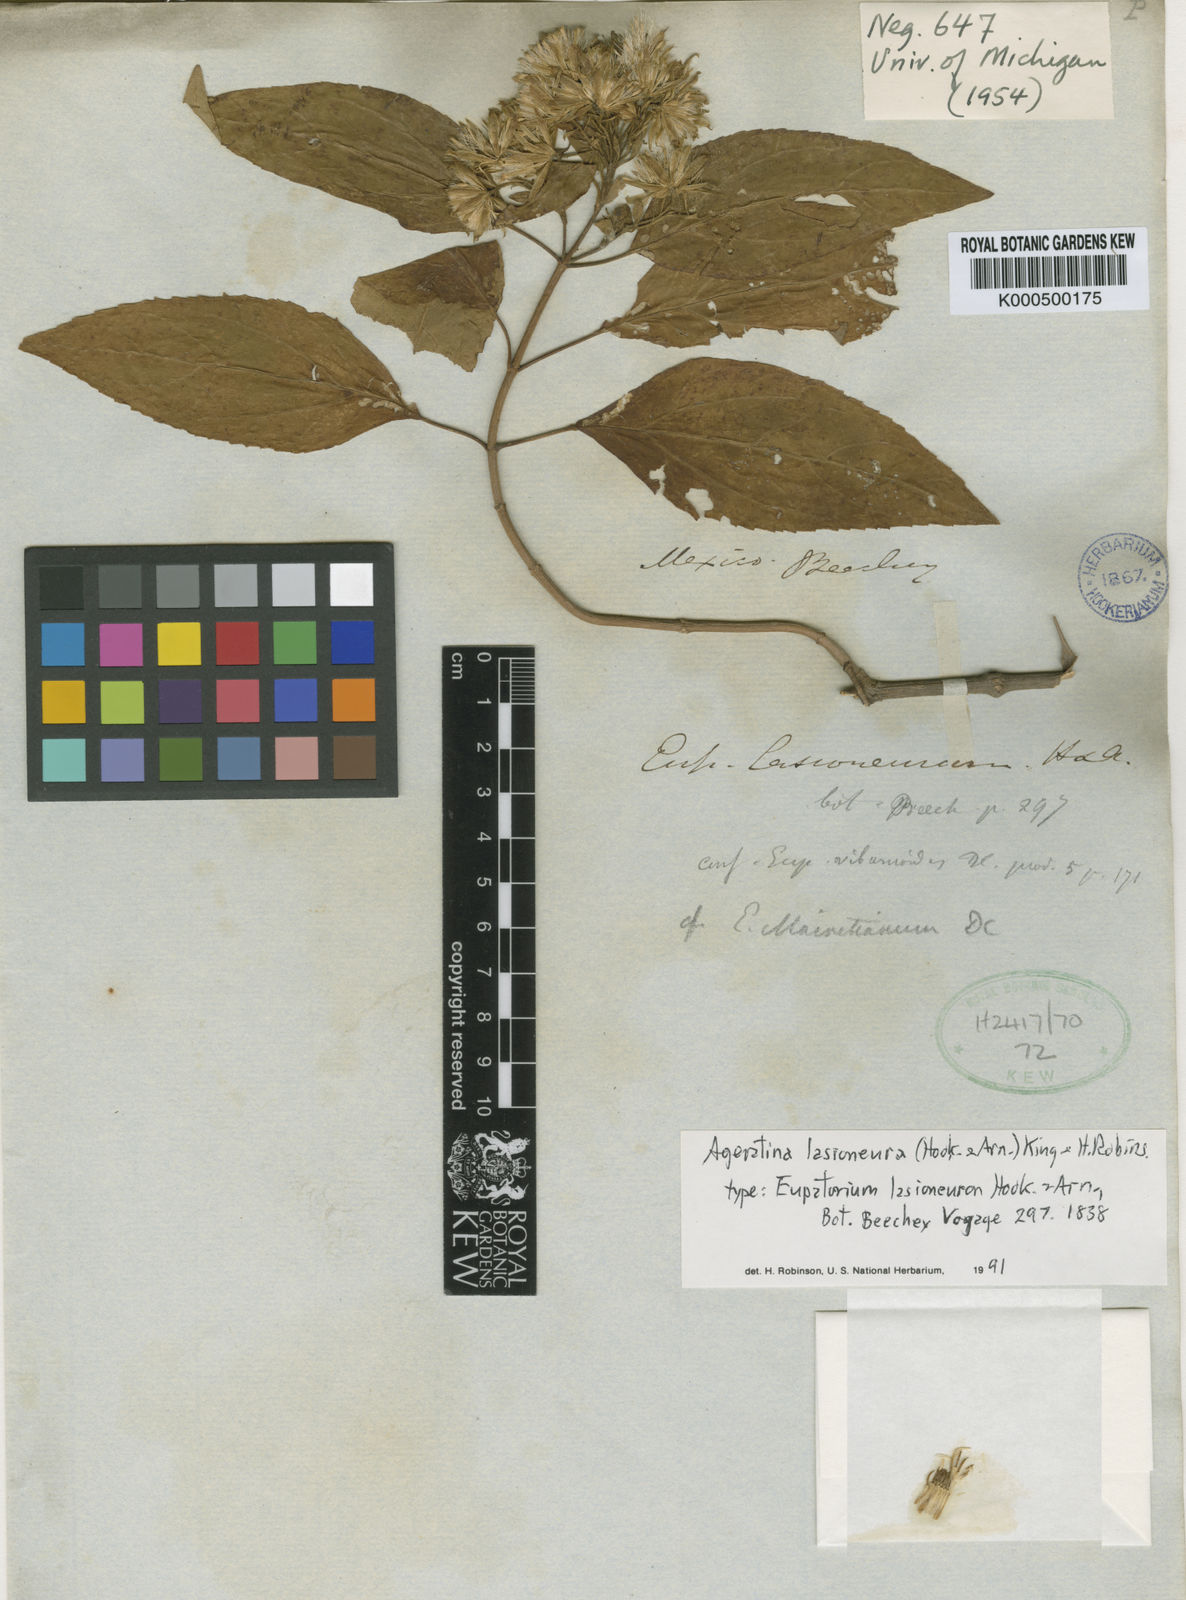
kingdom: Plantae
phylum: Tracheophyta
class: Magnoliopsida
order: Asterales
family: Asteraceae
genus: Ageratina
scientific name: Ageratina lasioneura
